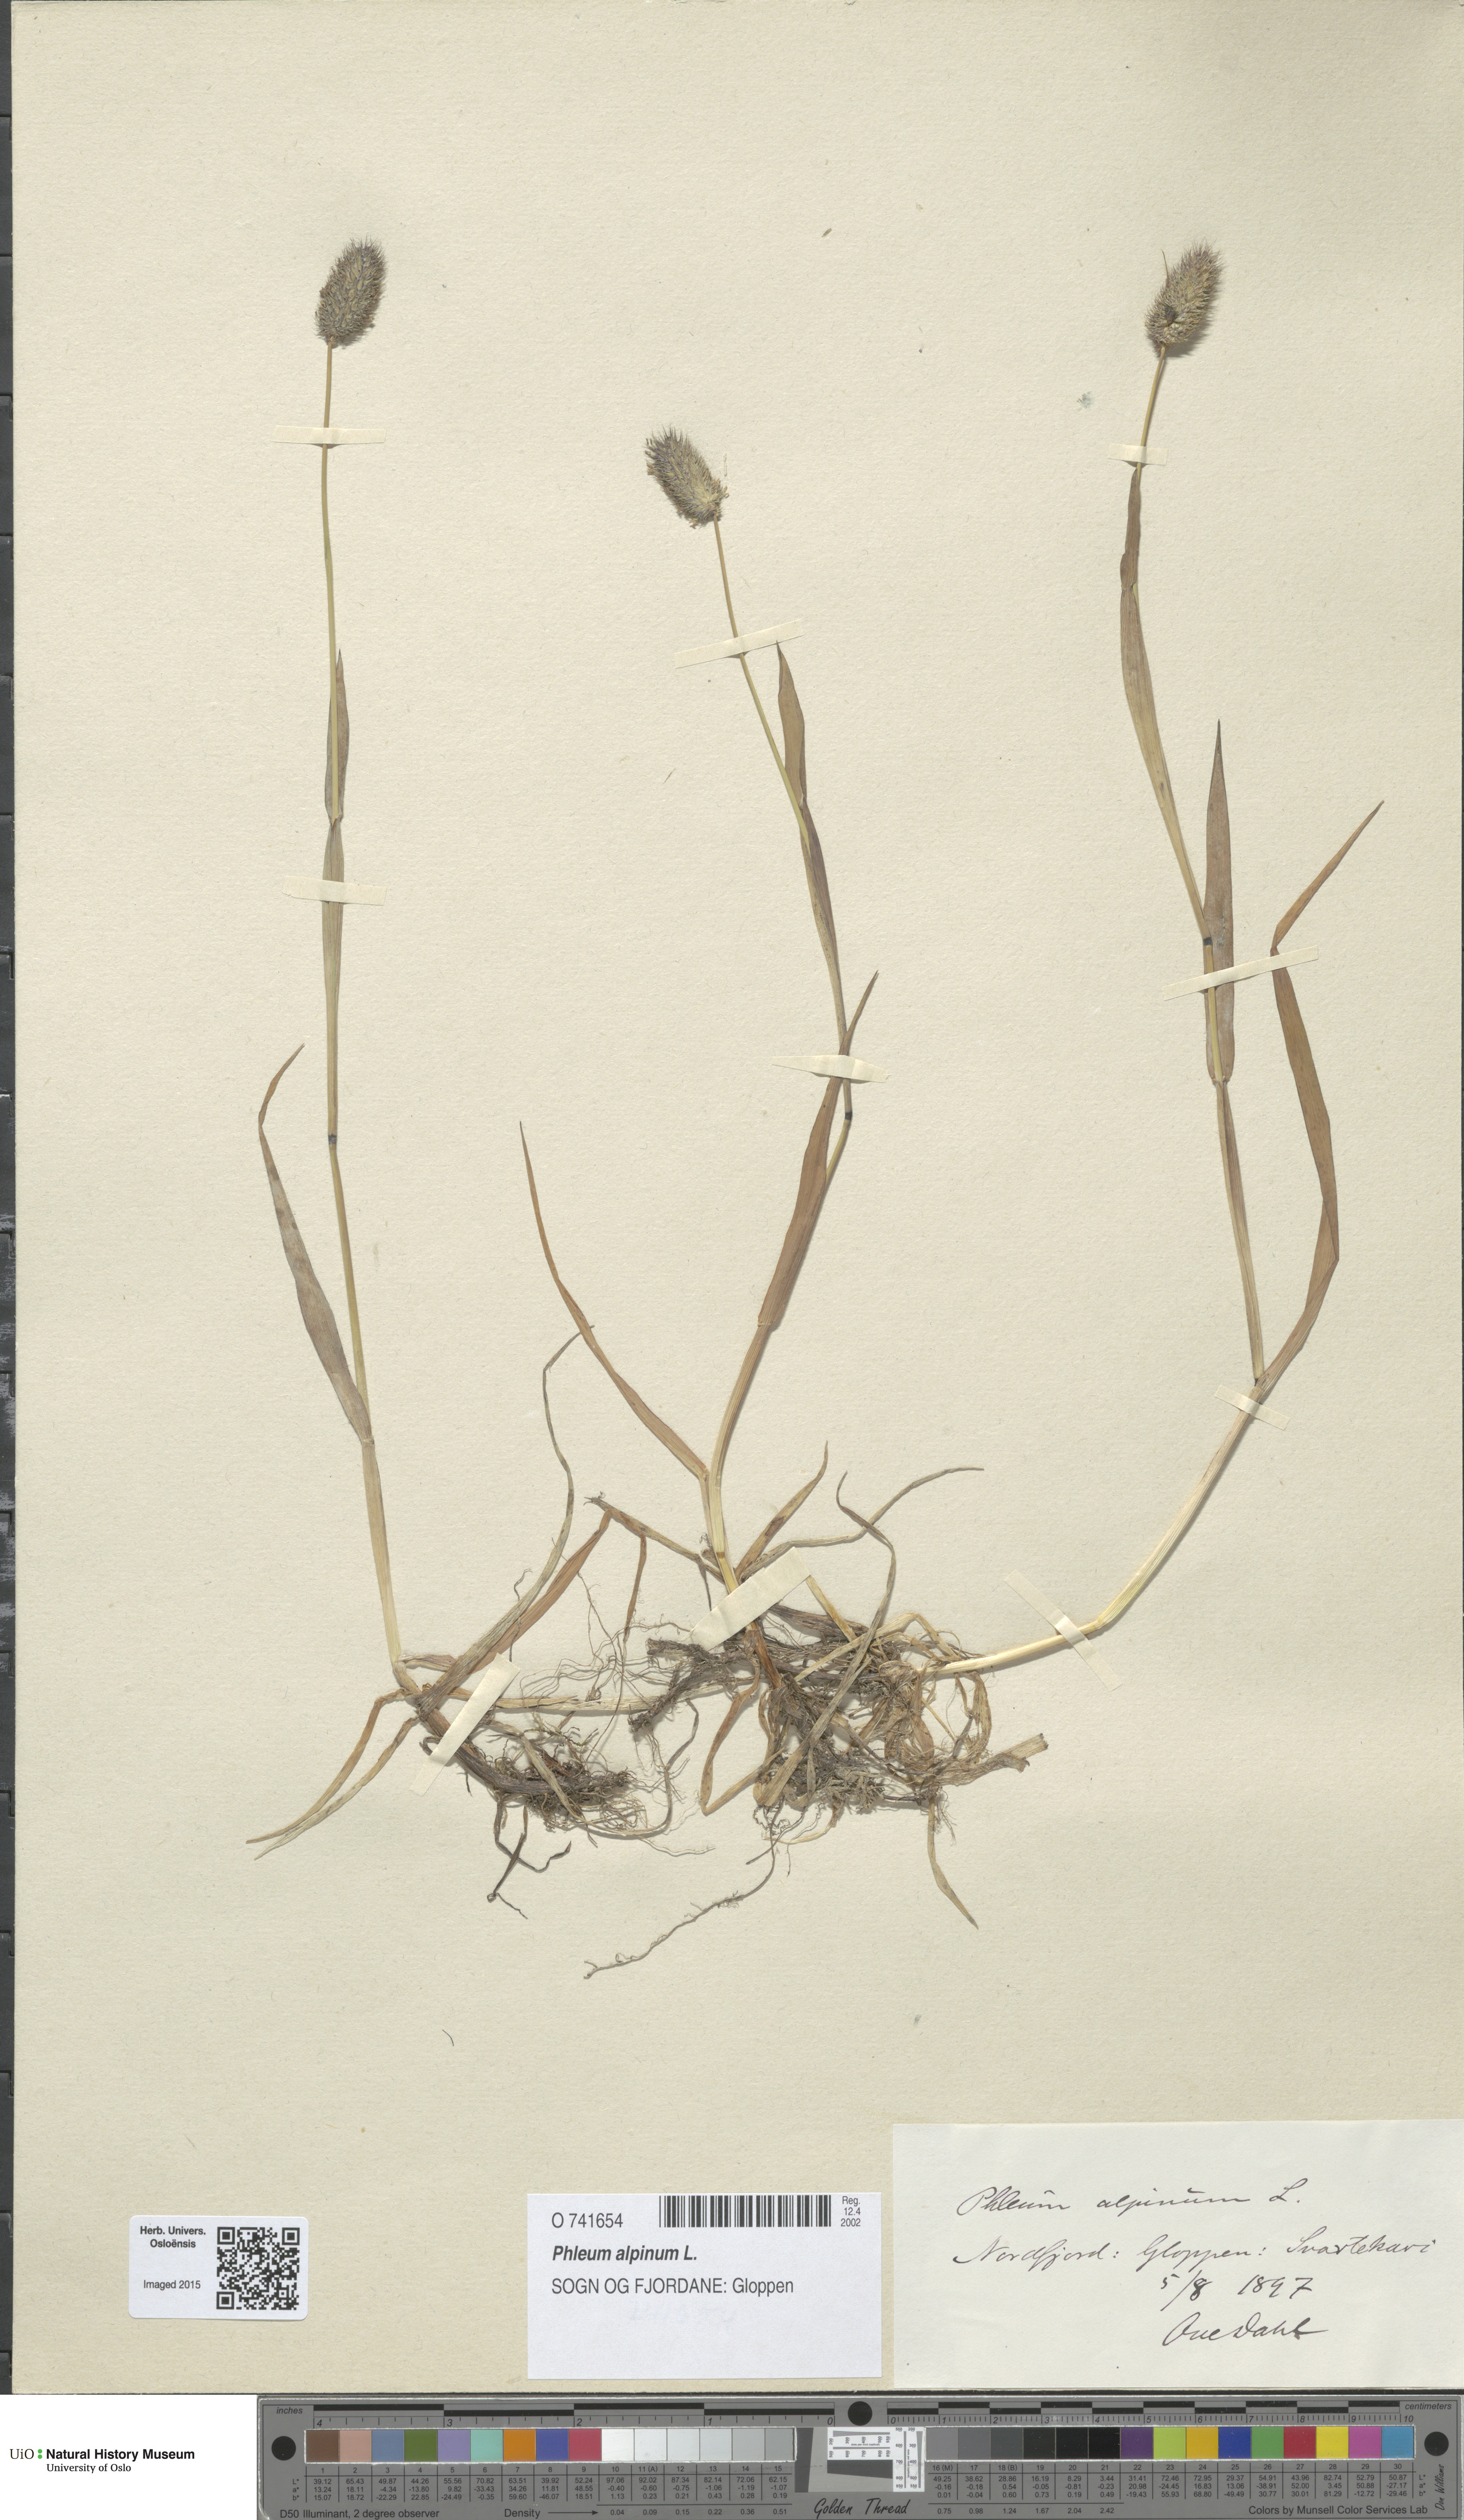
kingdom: Plantae
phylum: Tracheophyta
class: Liliopsida
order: Poales
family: Poaceae
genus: Phleum
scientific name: Phleum alpinum
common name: Alpine cat's-tail
